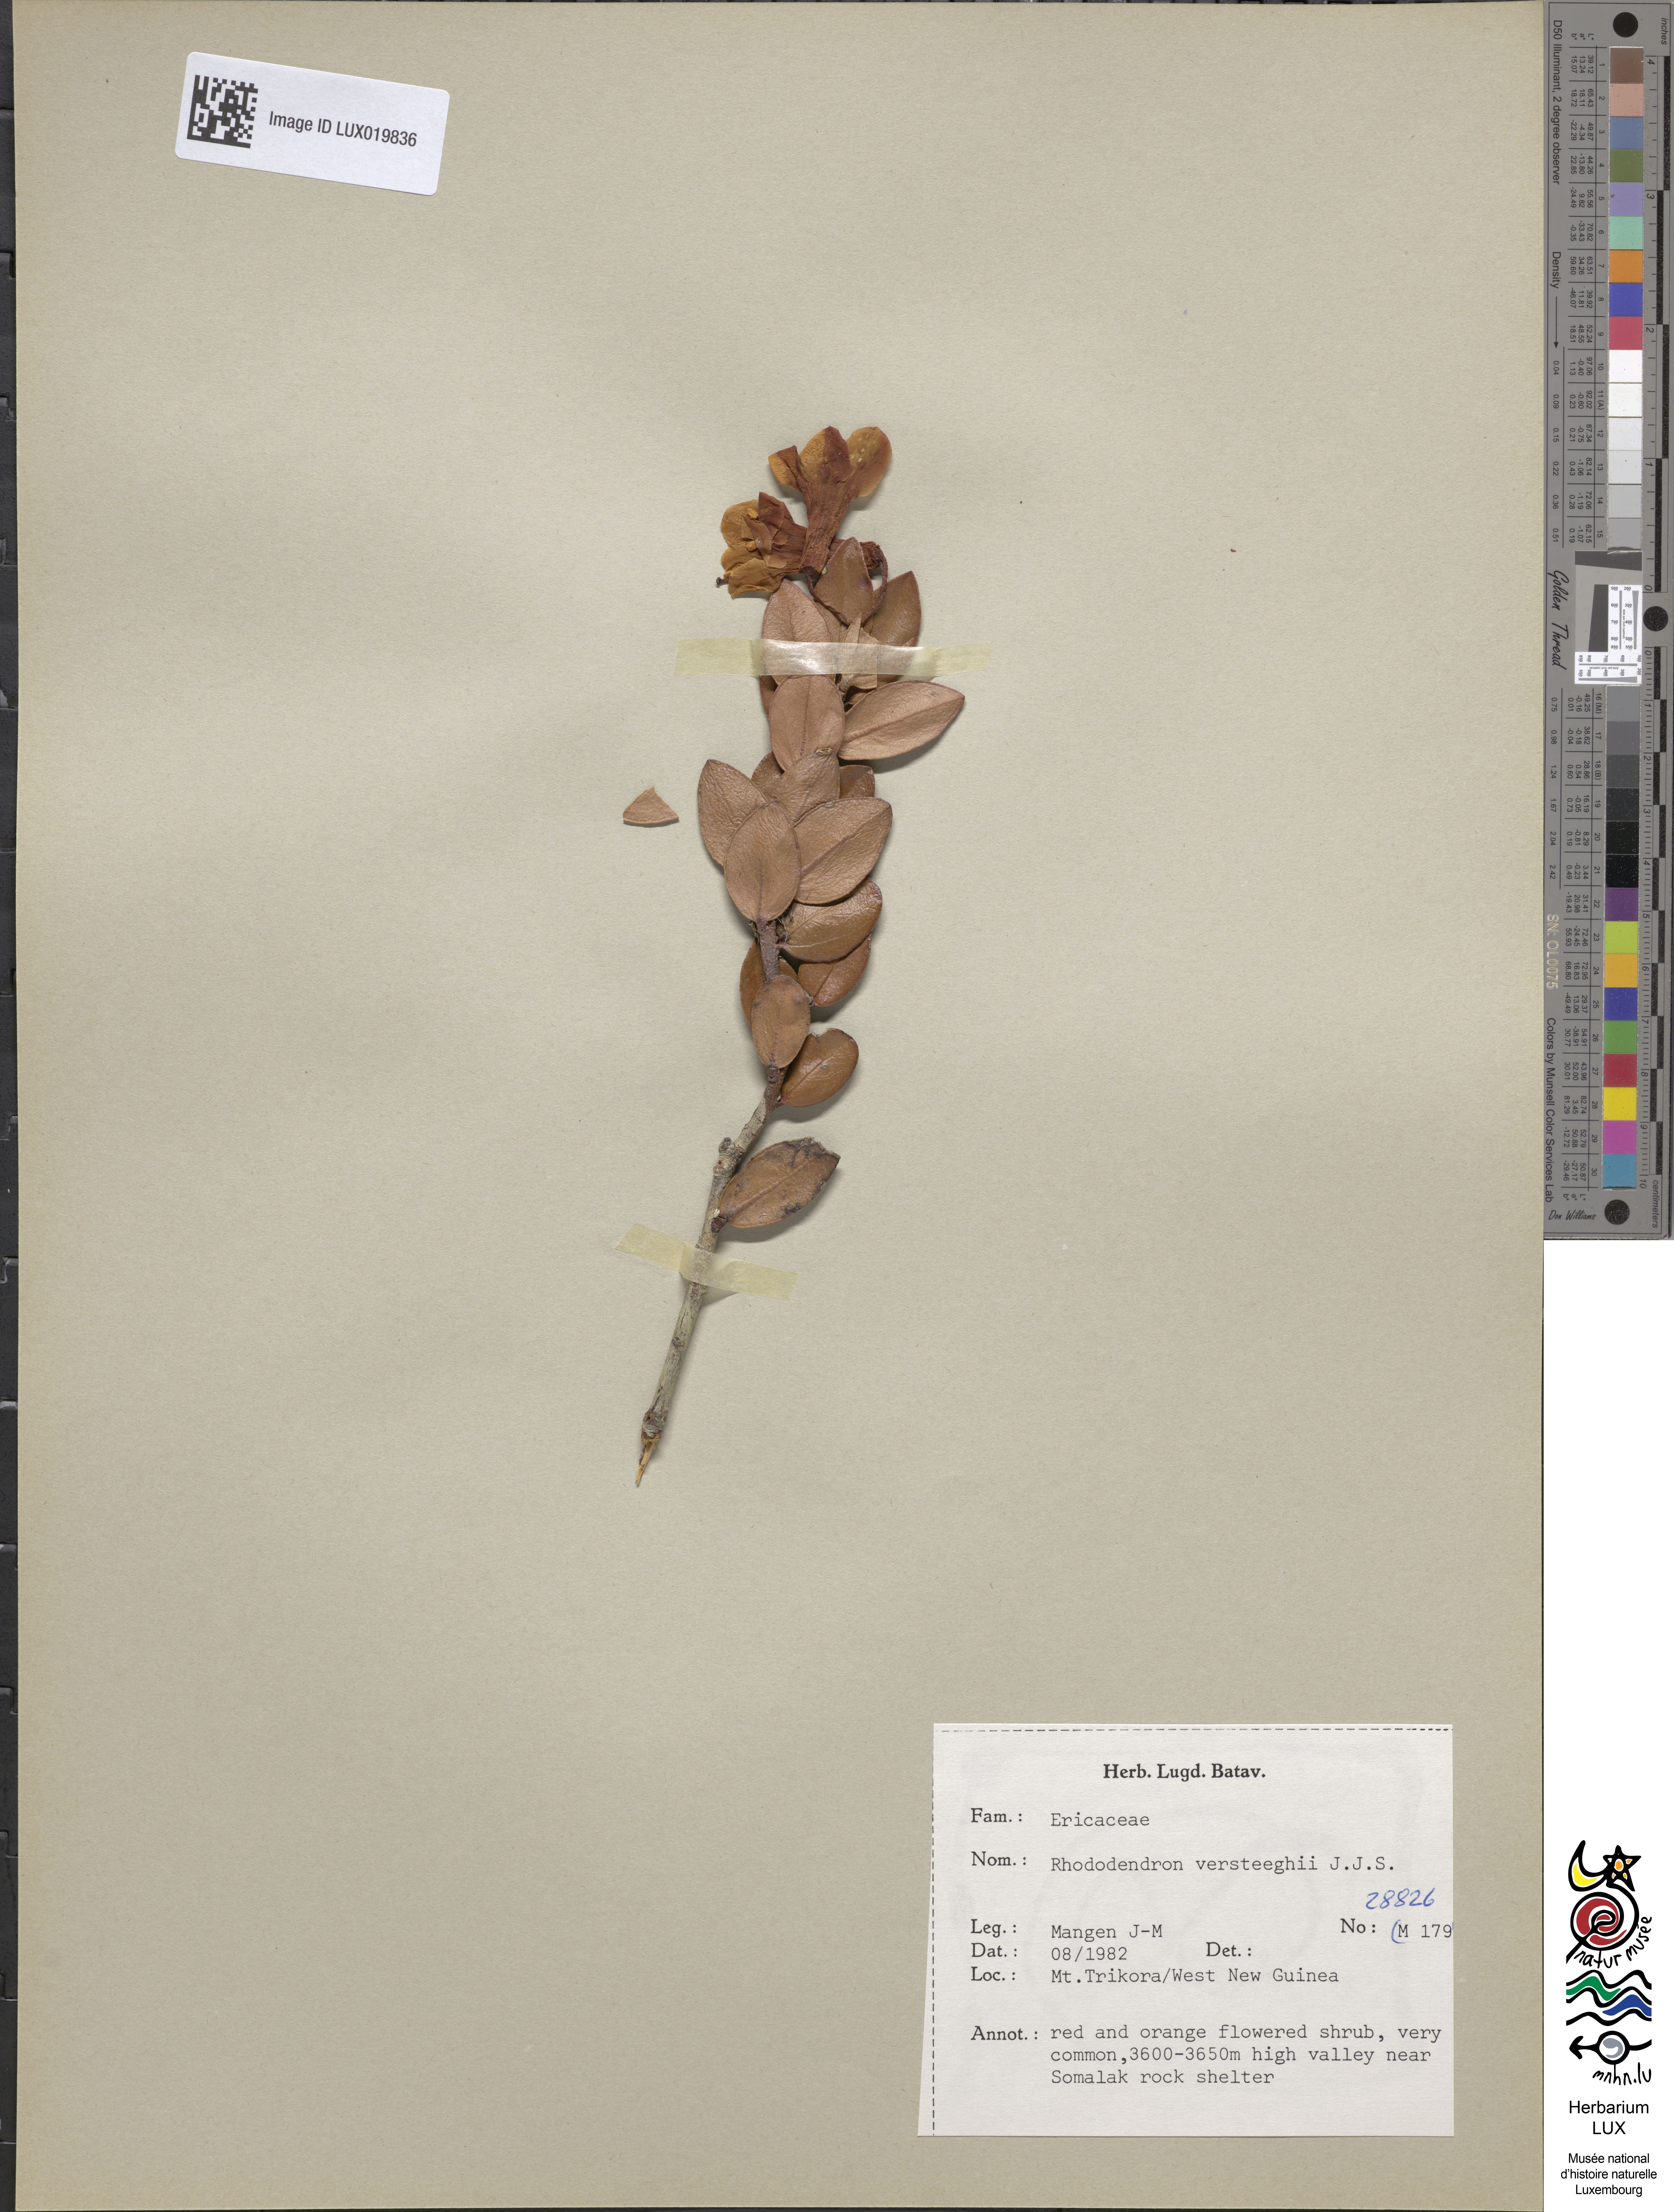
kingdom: Plantae
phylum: Tracheophyta
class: Magnoliopsida
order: Ericales
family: Ericaceae
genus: Rhododendron
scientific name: Rhododendron versteegii
